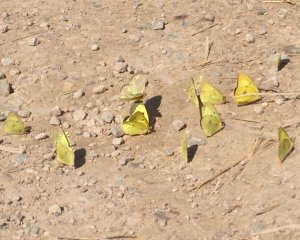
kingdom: Animalia
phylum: Arthropoda
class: Insecta
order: Lepidoptera
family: Pieridae
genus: Colias
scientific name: Colias philodice
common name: Clouded Sulphur
